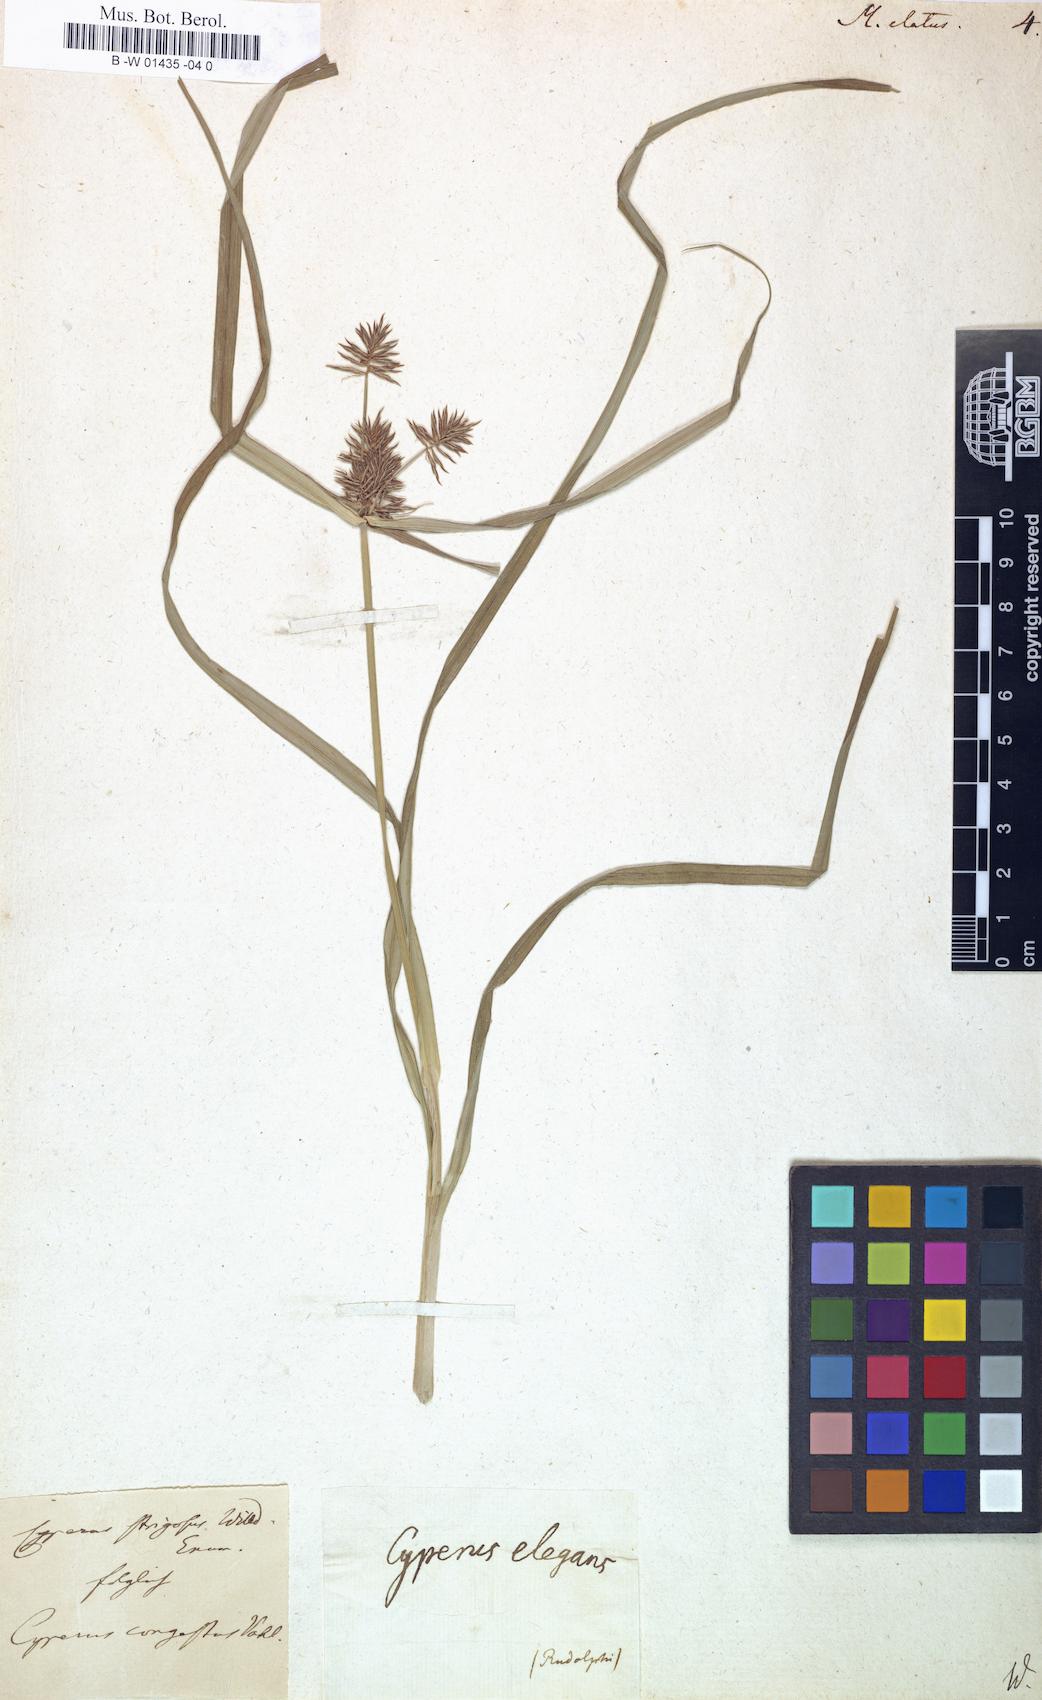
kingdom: Plantae
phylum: Tracheophyta
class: Liliopsida
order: Poales
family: Cyperaceae
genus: Cyperus
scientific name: Cyperus aggregatus
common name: Inflatedscale flatsedge
